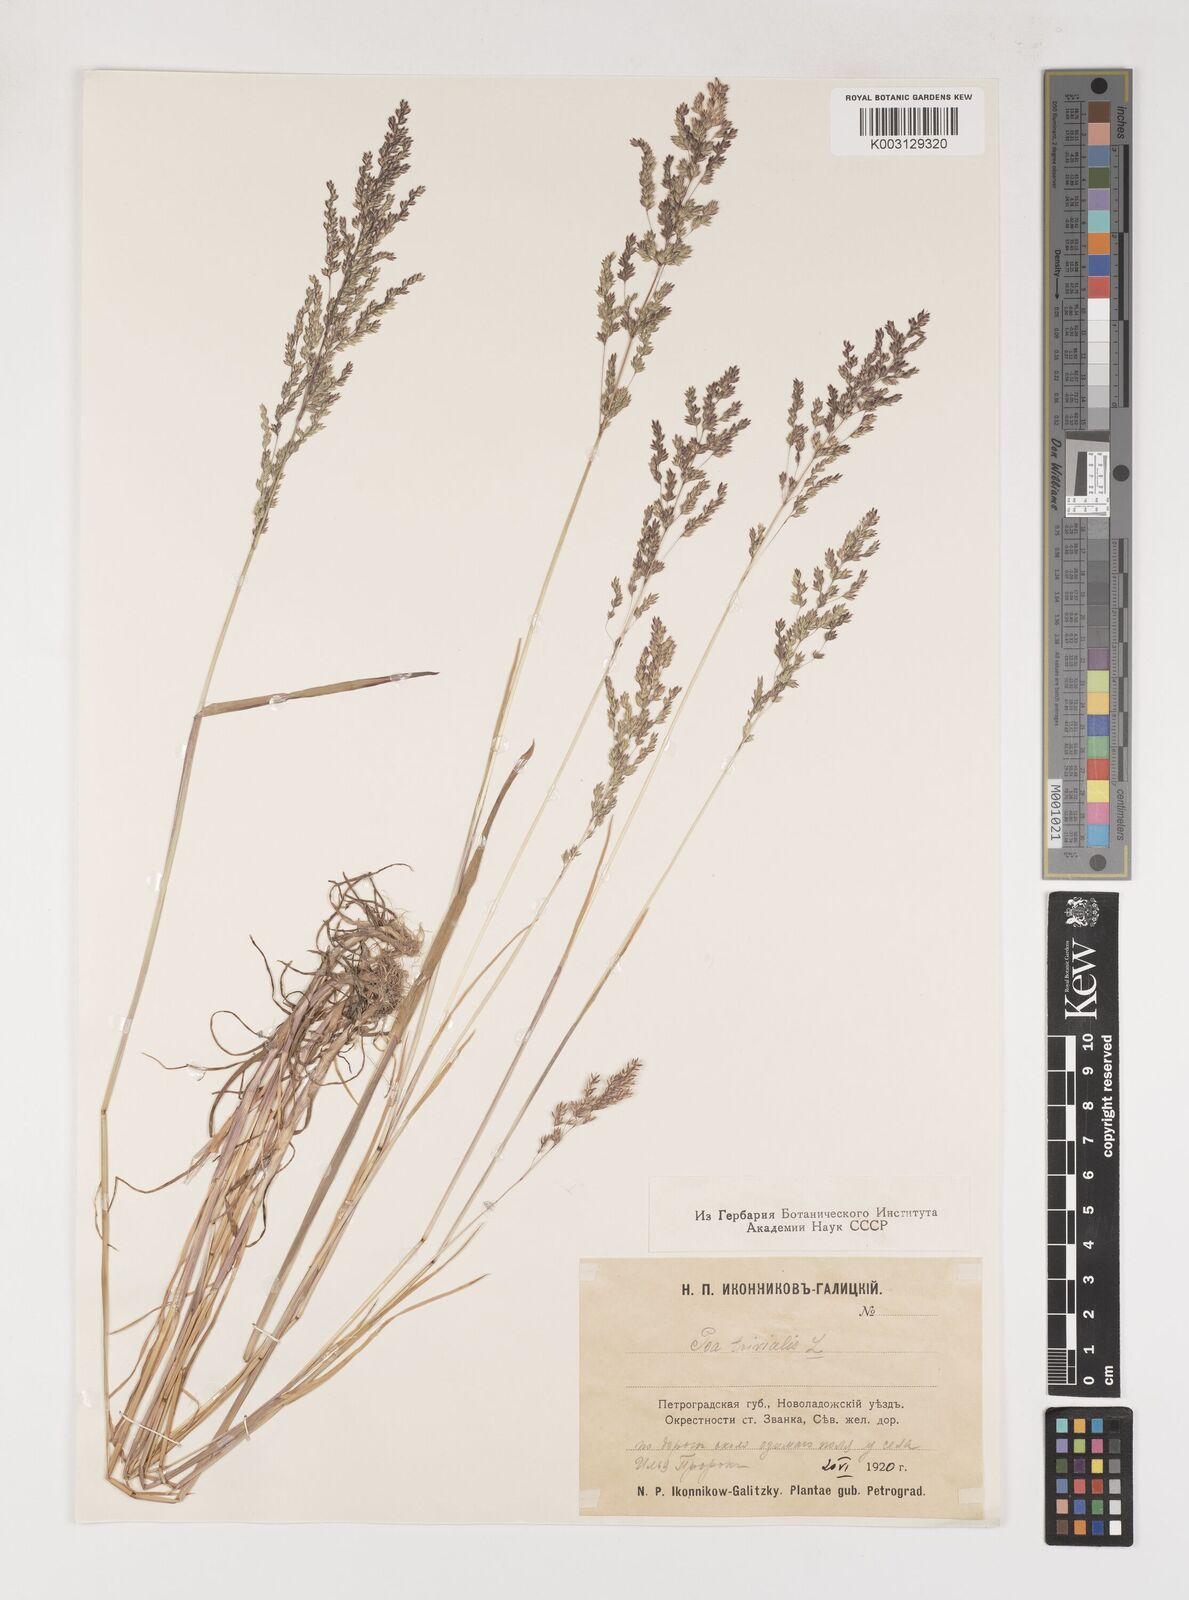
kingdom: Plantae
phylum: Tracheophyta
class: Liliopsida
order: Poales
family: Poaceae
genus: Poa
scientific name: Poa trivialis
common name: Rough bluegrass
